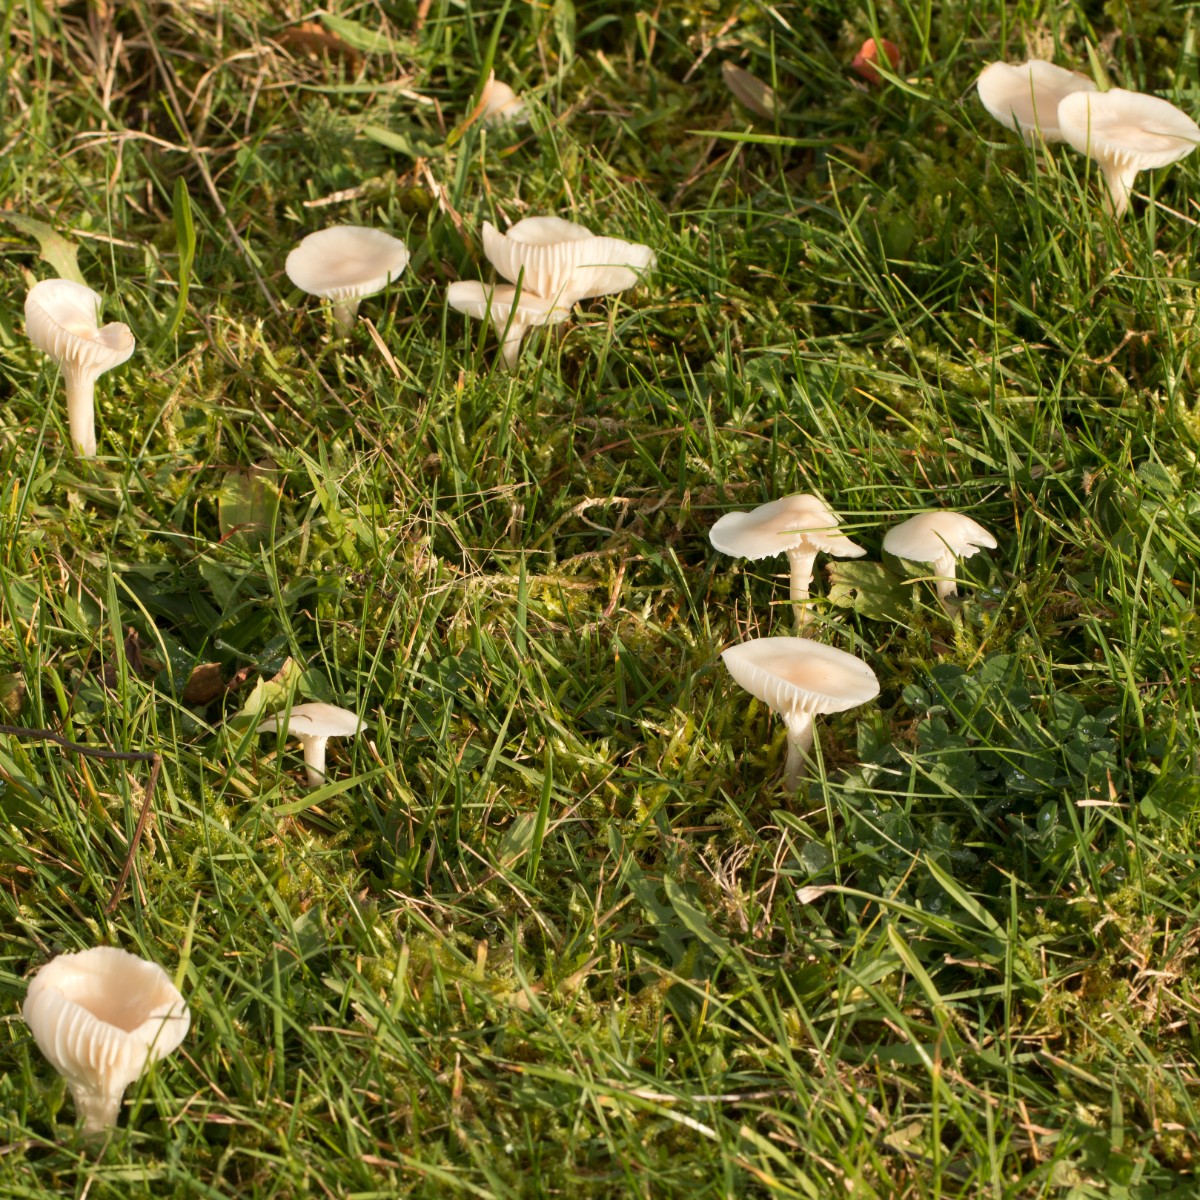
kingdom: Fungi
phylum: Basidiomycota
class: Agaricomycetes
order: Agaricales
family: Hygrophoraceae
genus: Cuphophyllus
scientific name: Cuphophyllus virgineus
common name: snehvid vokshat
